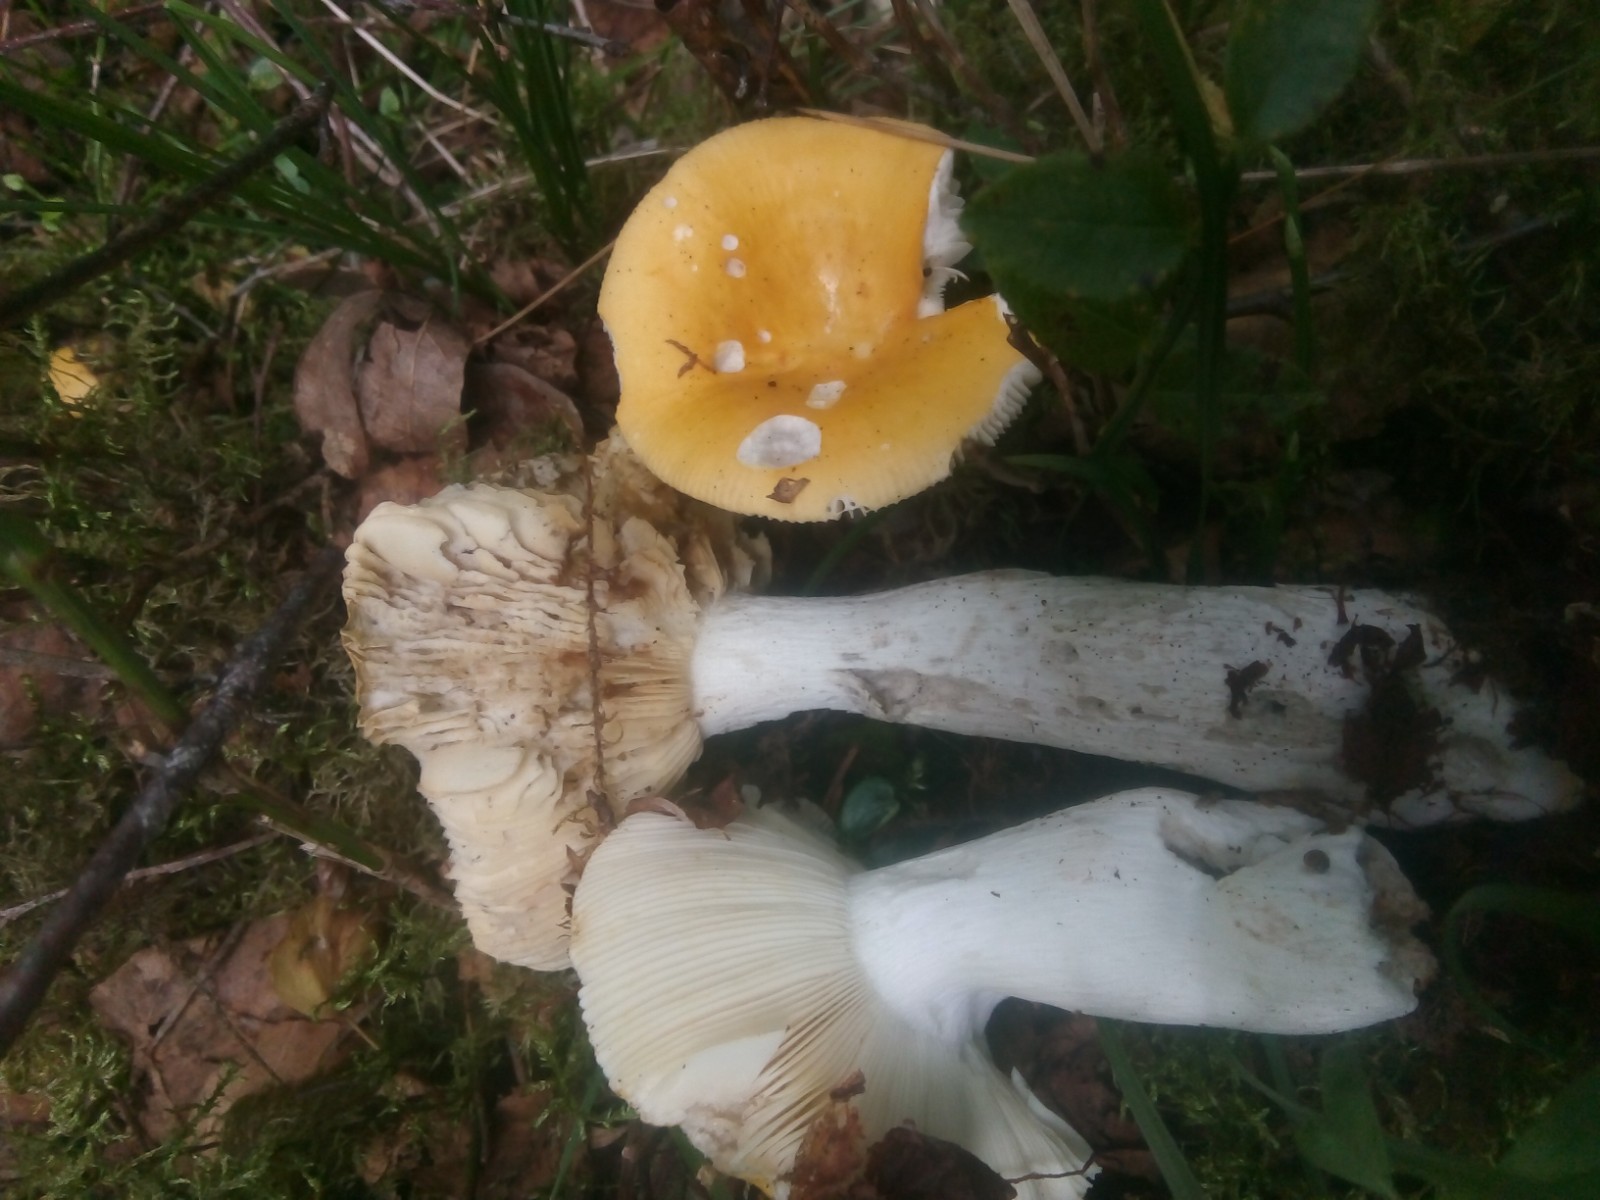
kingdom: Fungi
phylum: Basidiomycota
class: Agaricomycetes
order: Russulales
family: Russulaceae
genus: Russula
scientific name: Russula claroflava
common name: birke-skørhat
